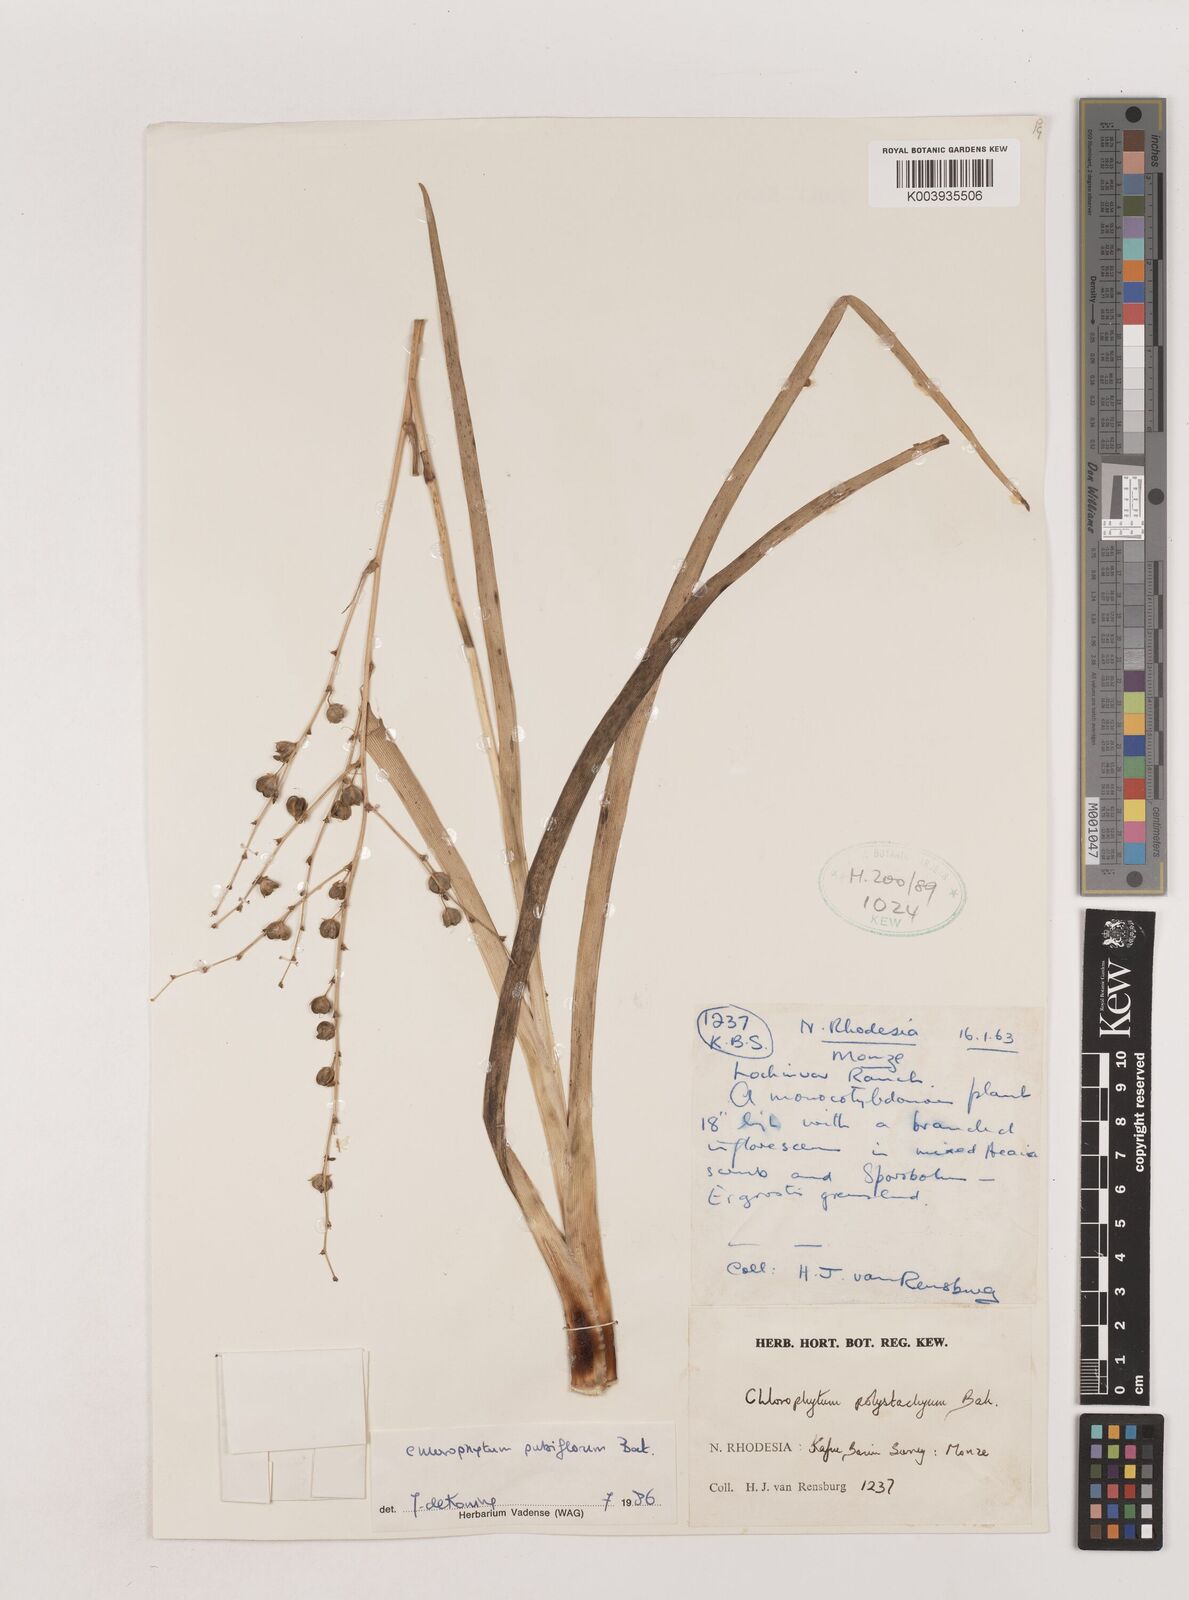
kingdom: Plantae
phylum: Tracheophyta
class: Liliopsida
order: Asparagales
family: Asparagaceae
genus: Chlorophytum
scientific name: Chlorophytum pubiflorum
